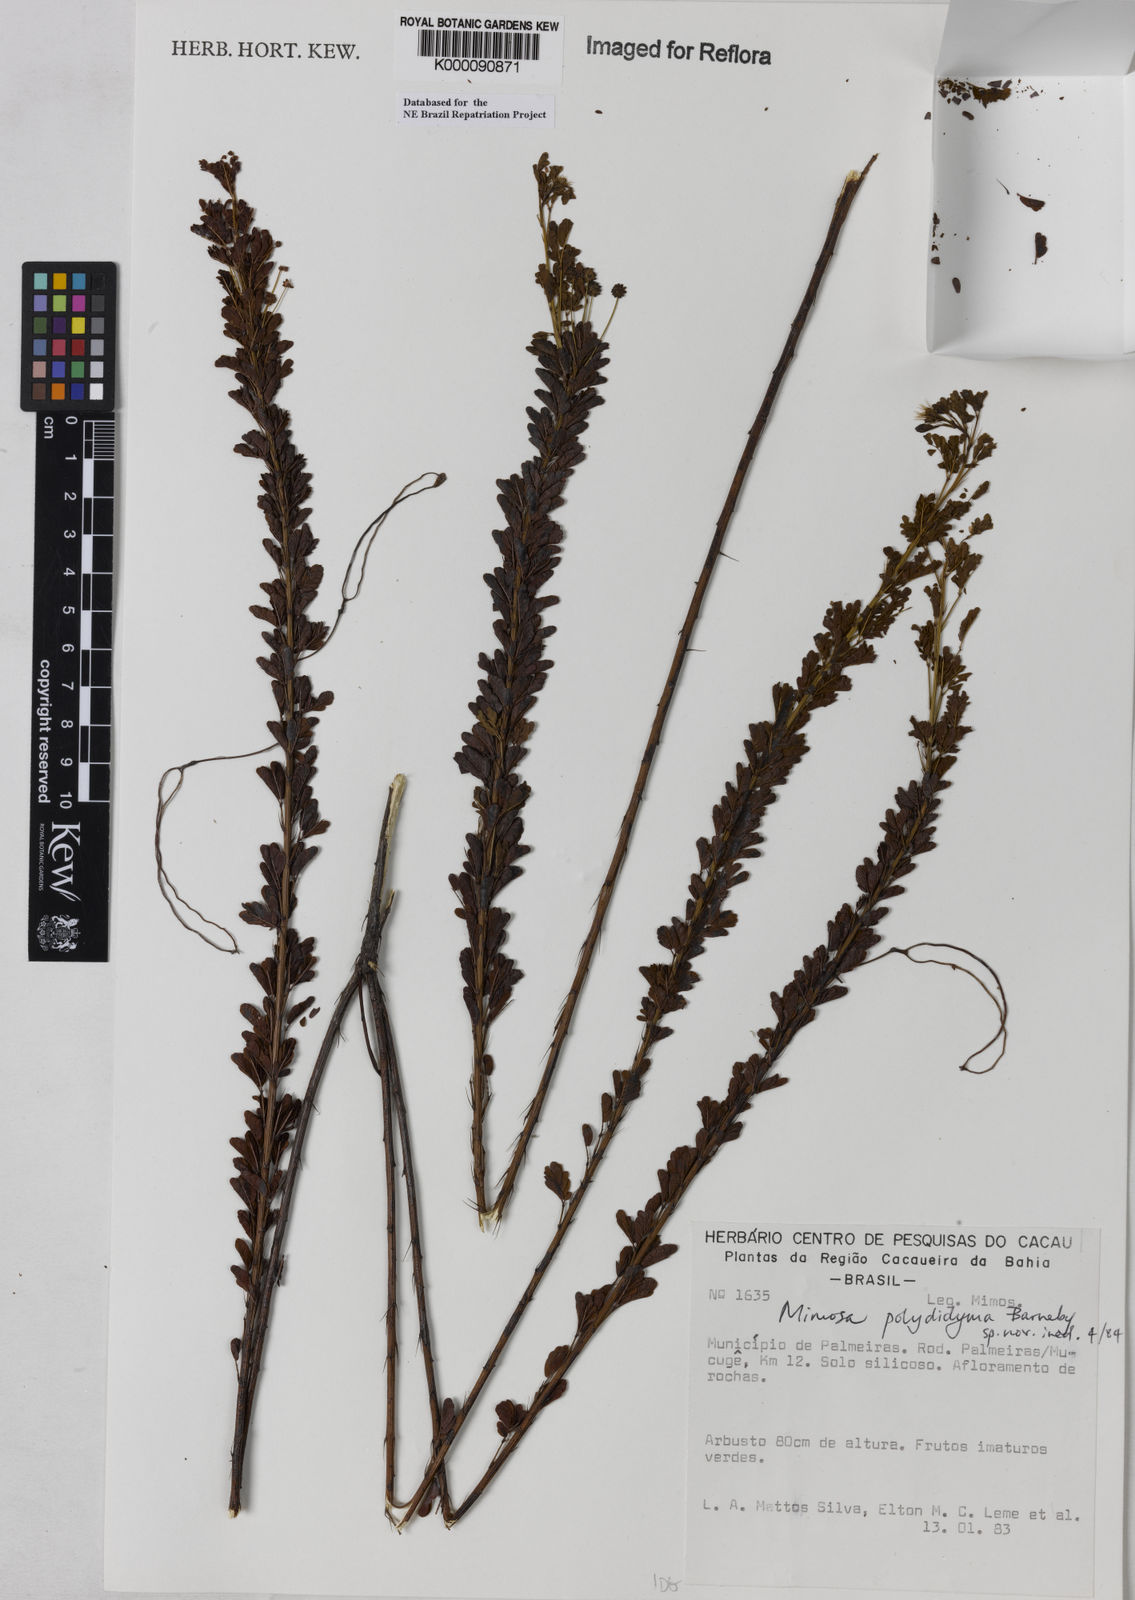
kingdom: Plantae
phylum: Tracheophyta
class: Magnoliopsida
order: Fabales
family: Fabaceae
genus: Mimosa
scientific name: Mimosa polydidyma
